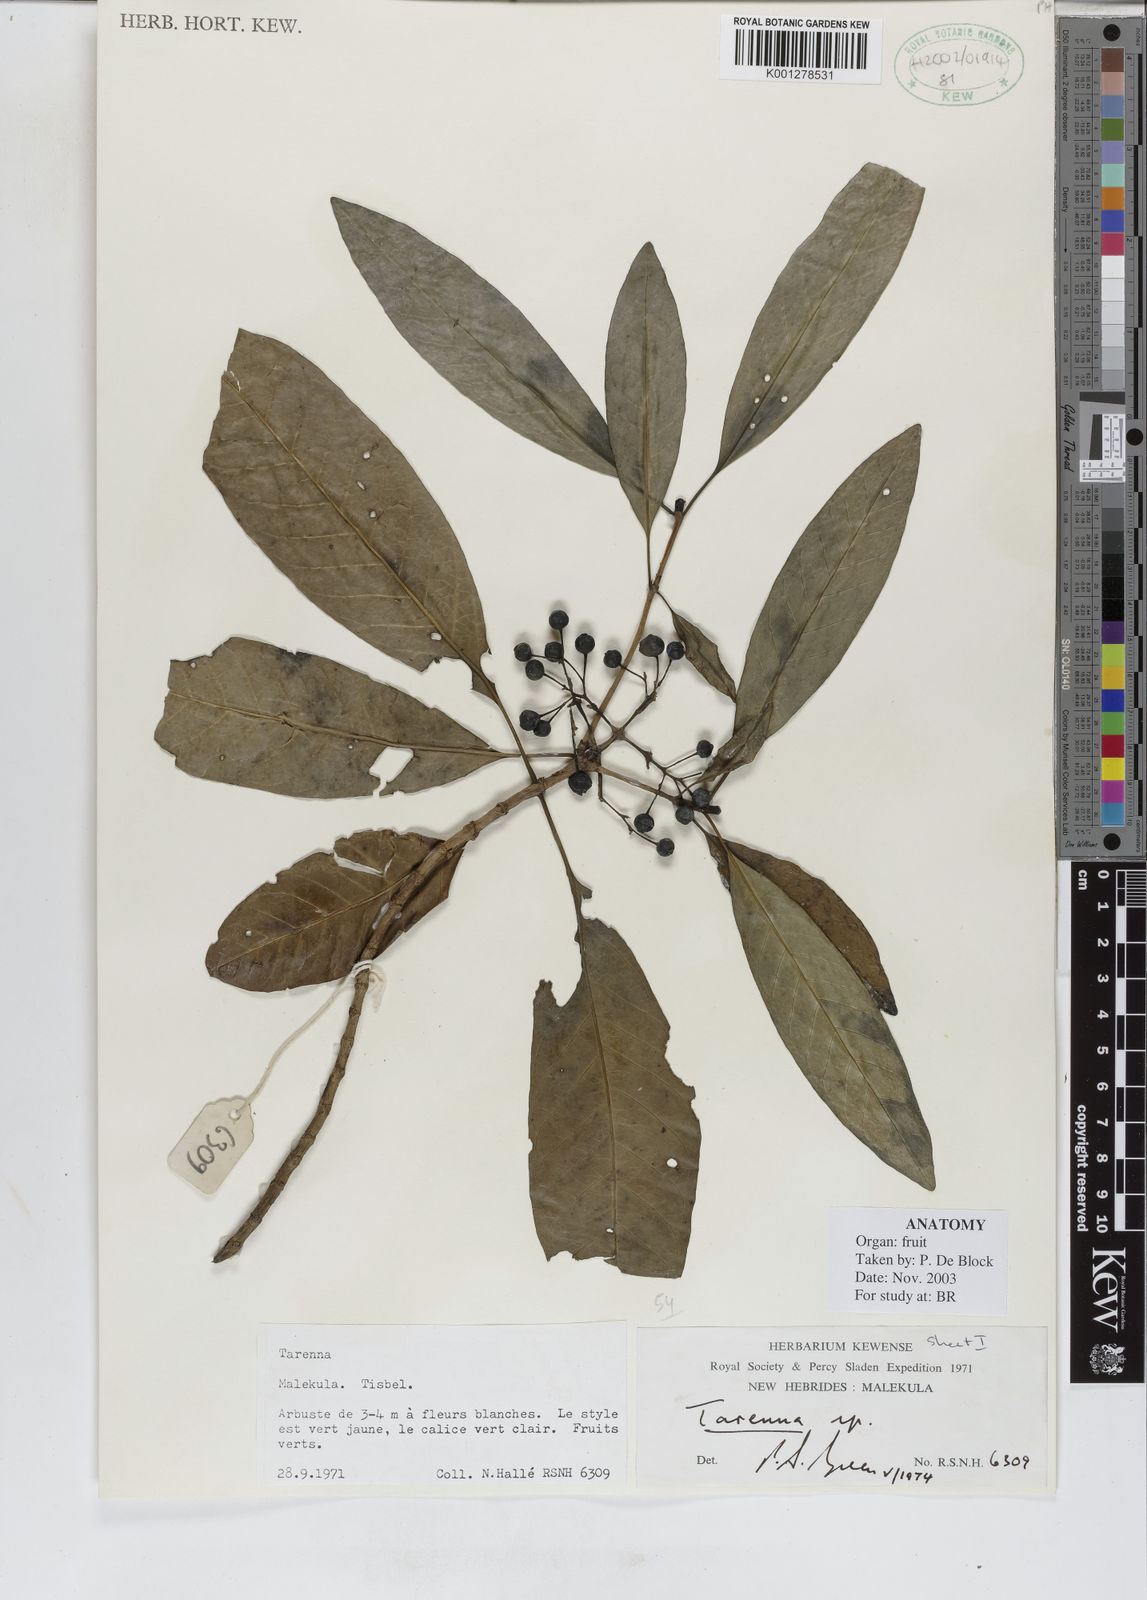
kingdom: Plantae
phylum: Tracheophyta
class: Magnoliopsida
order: Gentianales
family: Rubiaceae
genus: Tarenna
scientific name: Tarenna
